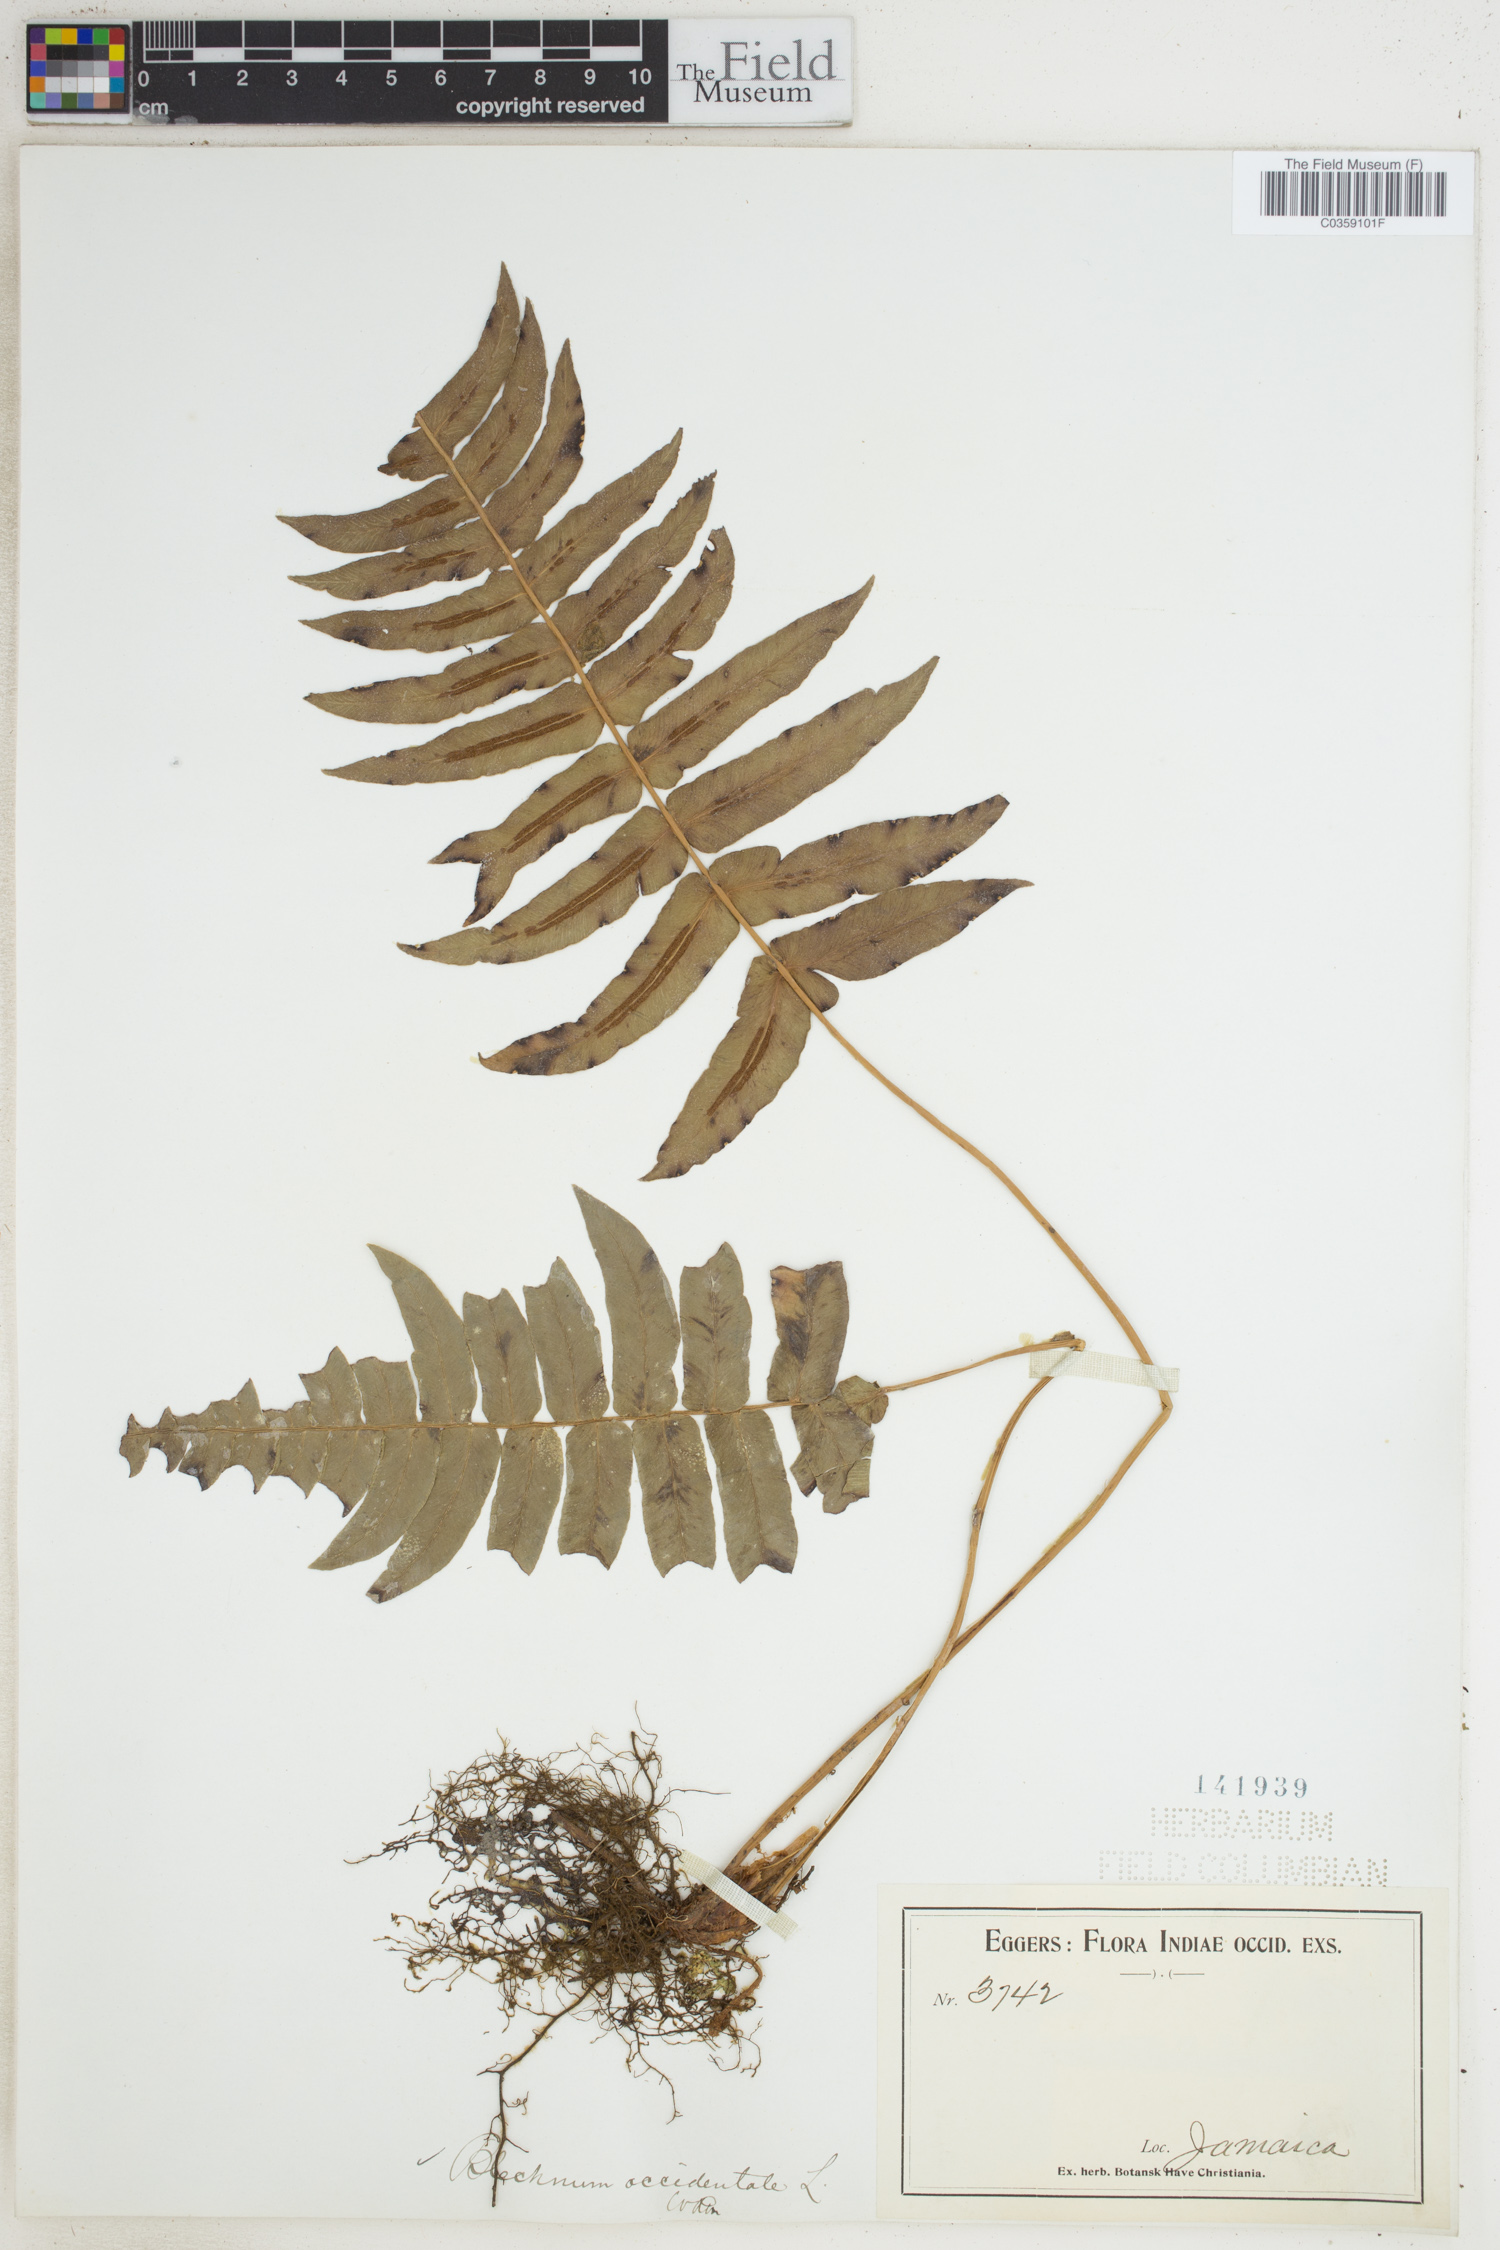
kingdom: Plantae
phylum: Tracheophyta
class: Polypodiopsida
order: Polypodiales
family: Blechnaceae
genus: Blechnum
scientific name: Blechnum occidentale
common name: Hammock fern
